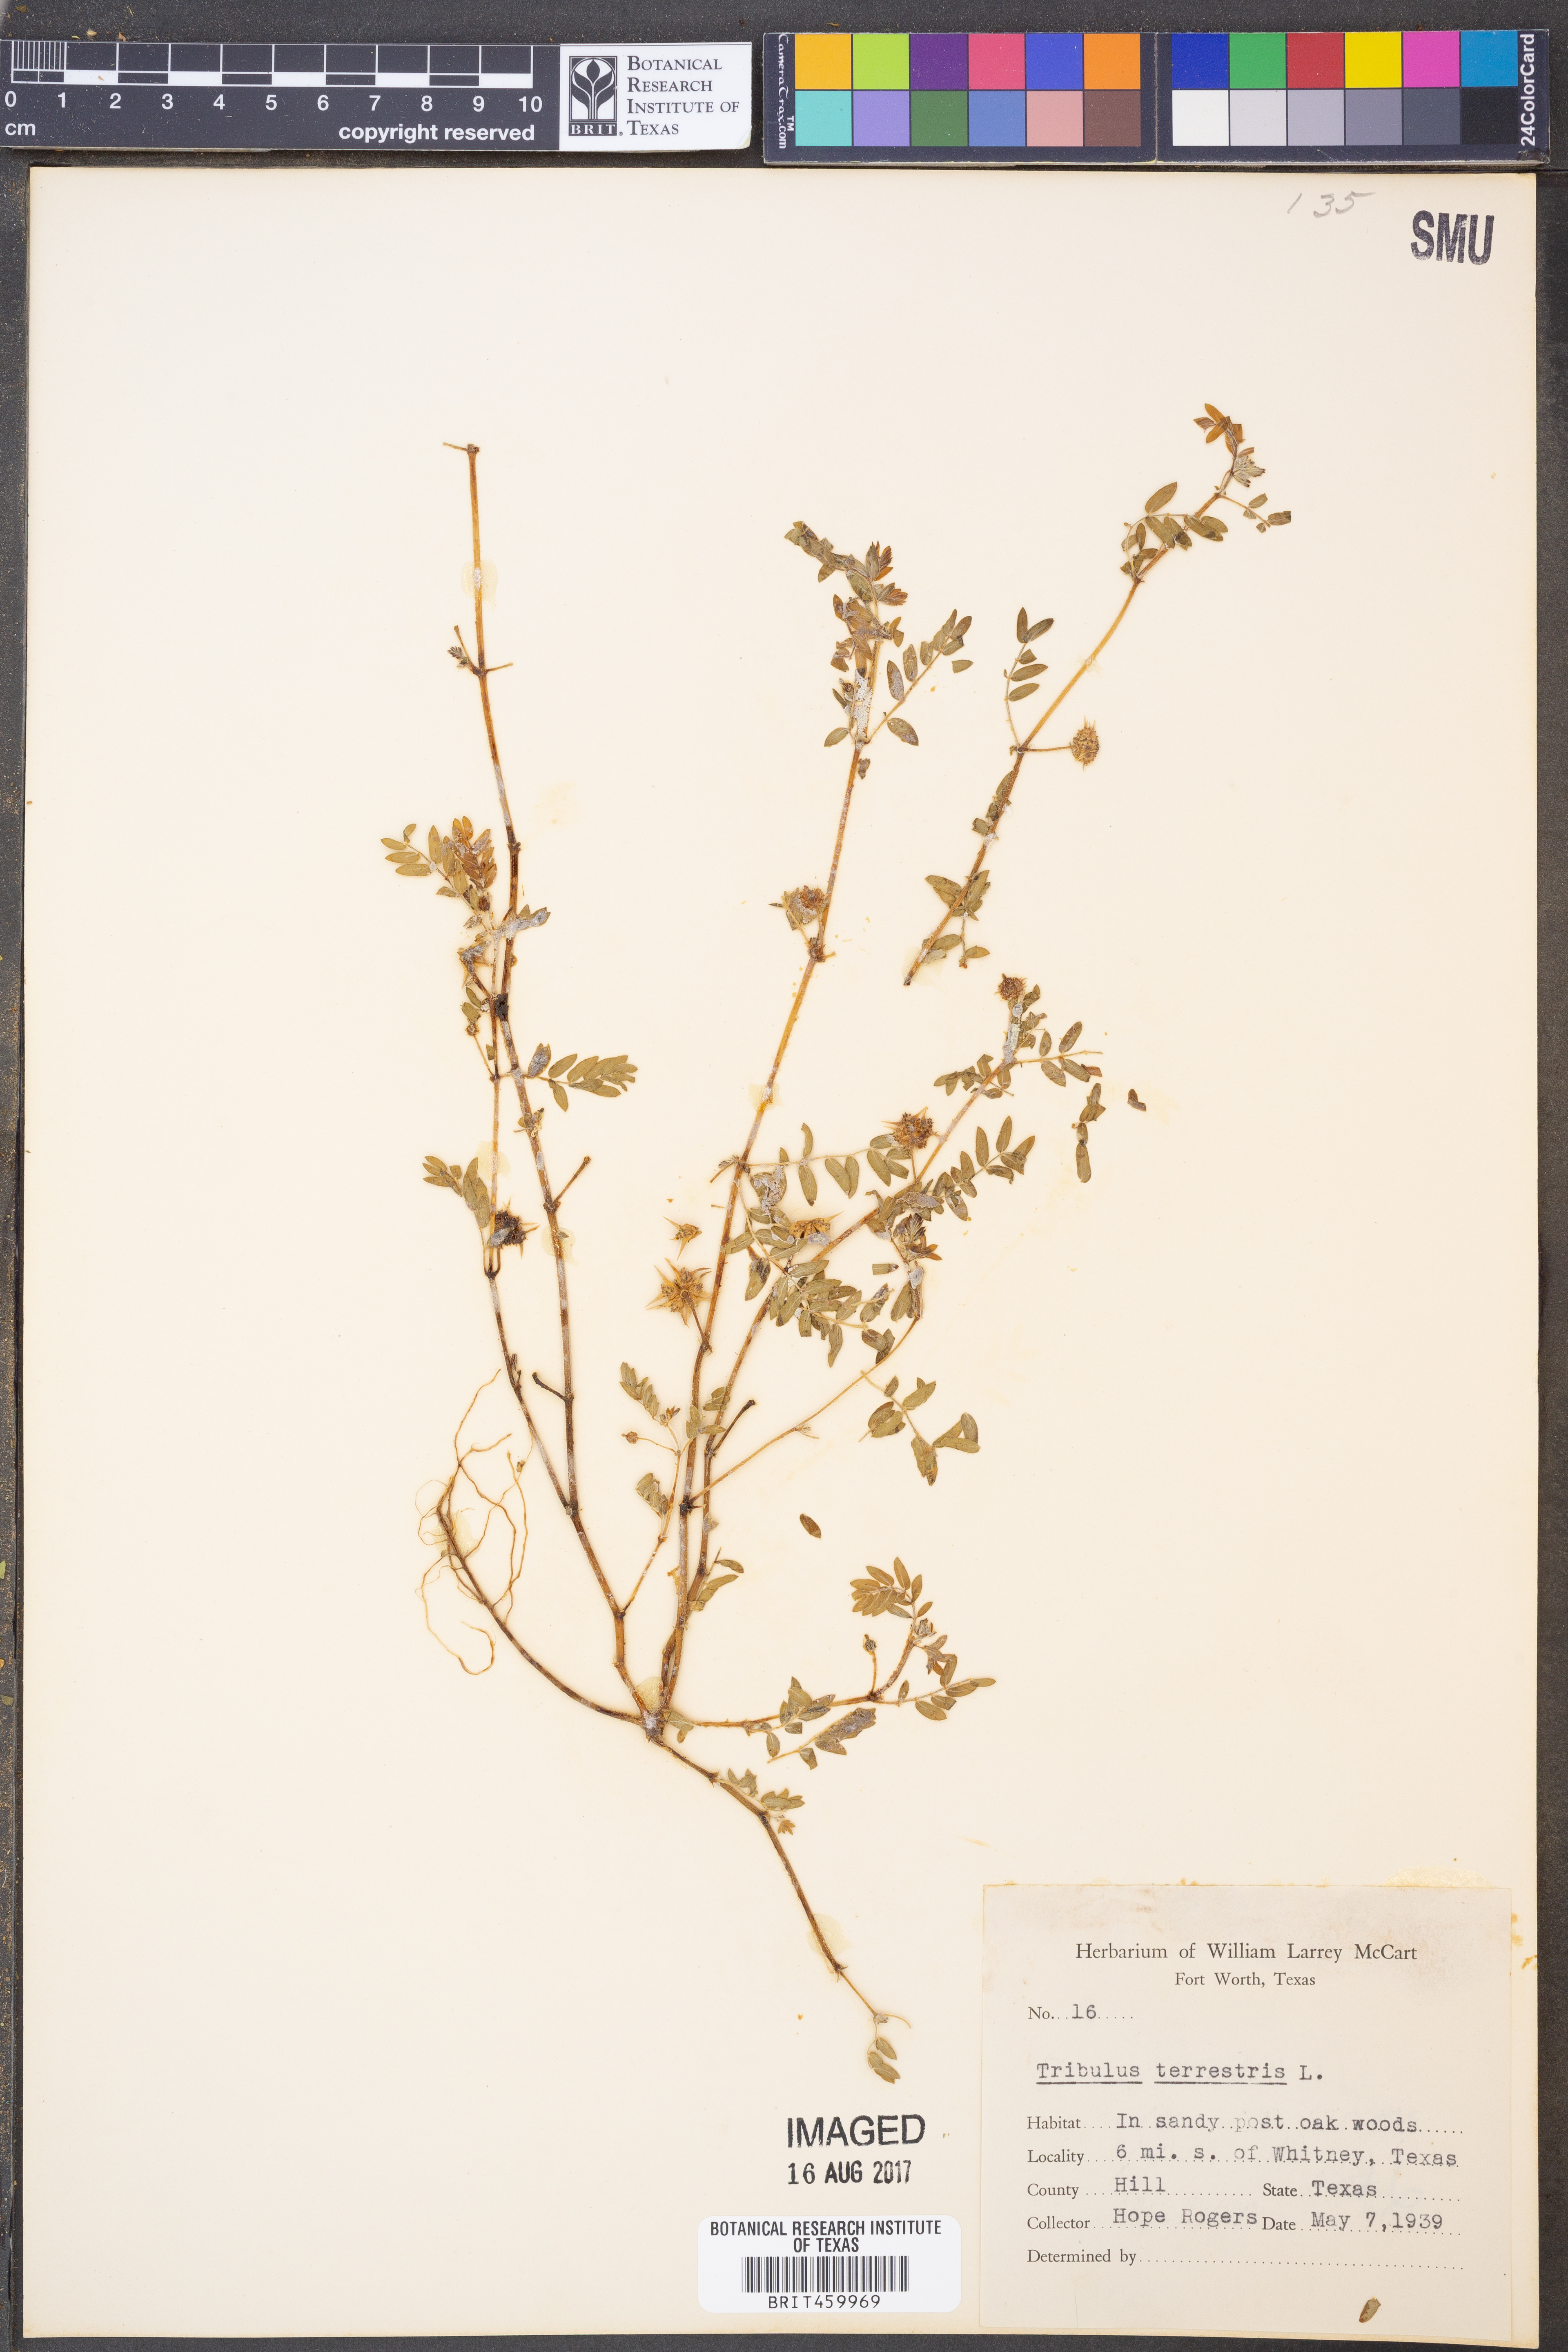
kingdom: Plantae
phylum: Tracheophyta
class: Magnoliopsida
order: Zygophyllales
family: Zygophyllaceae
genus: Tribulus
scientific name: Tribulus terrestris
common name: Puncturevine
